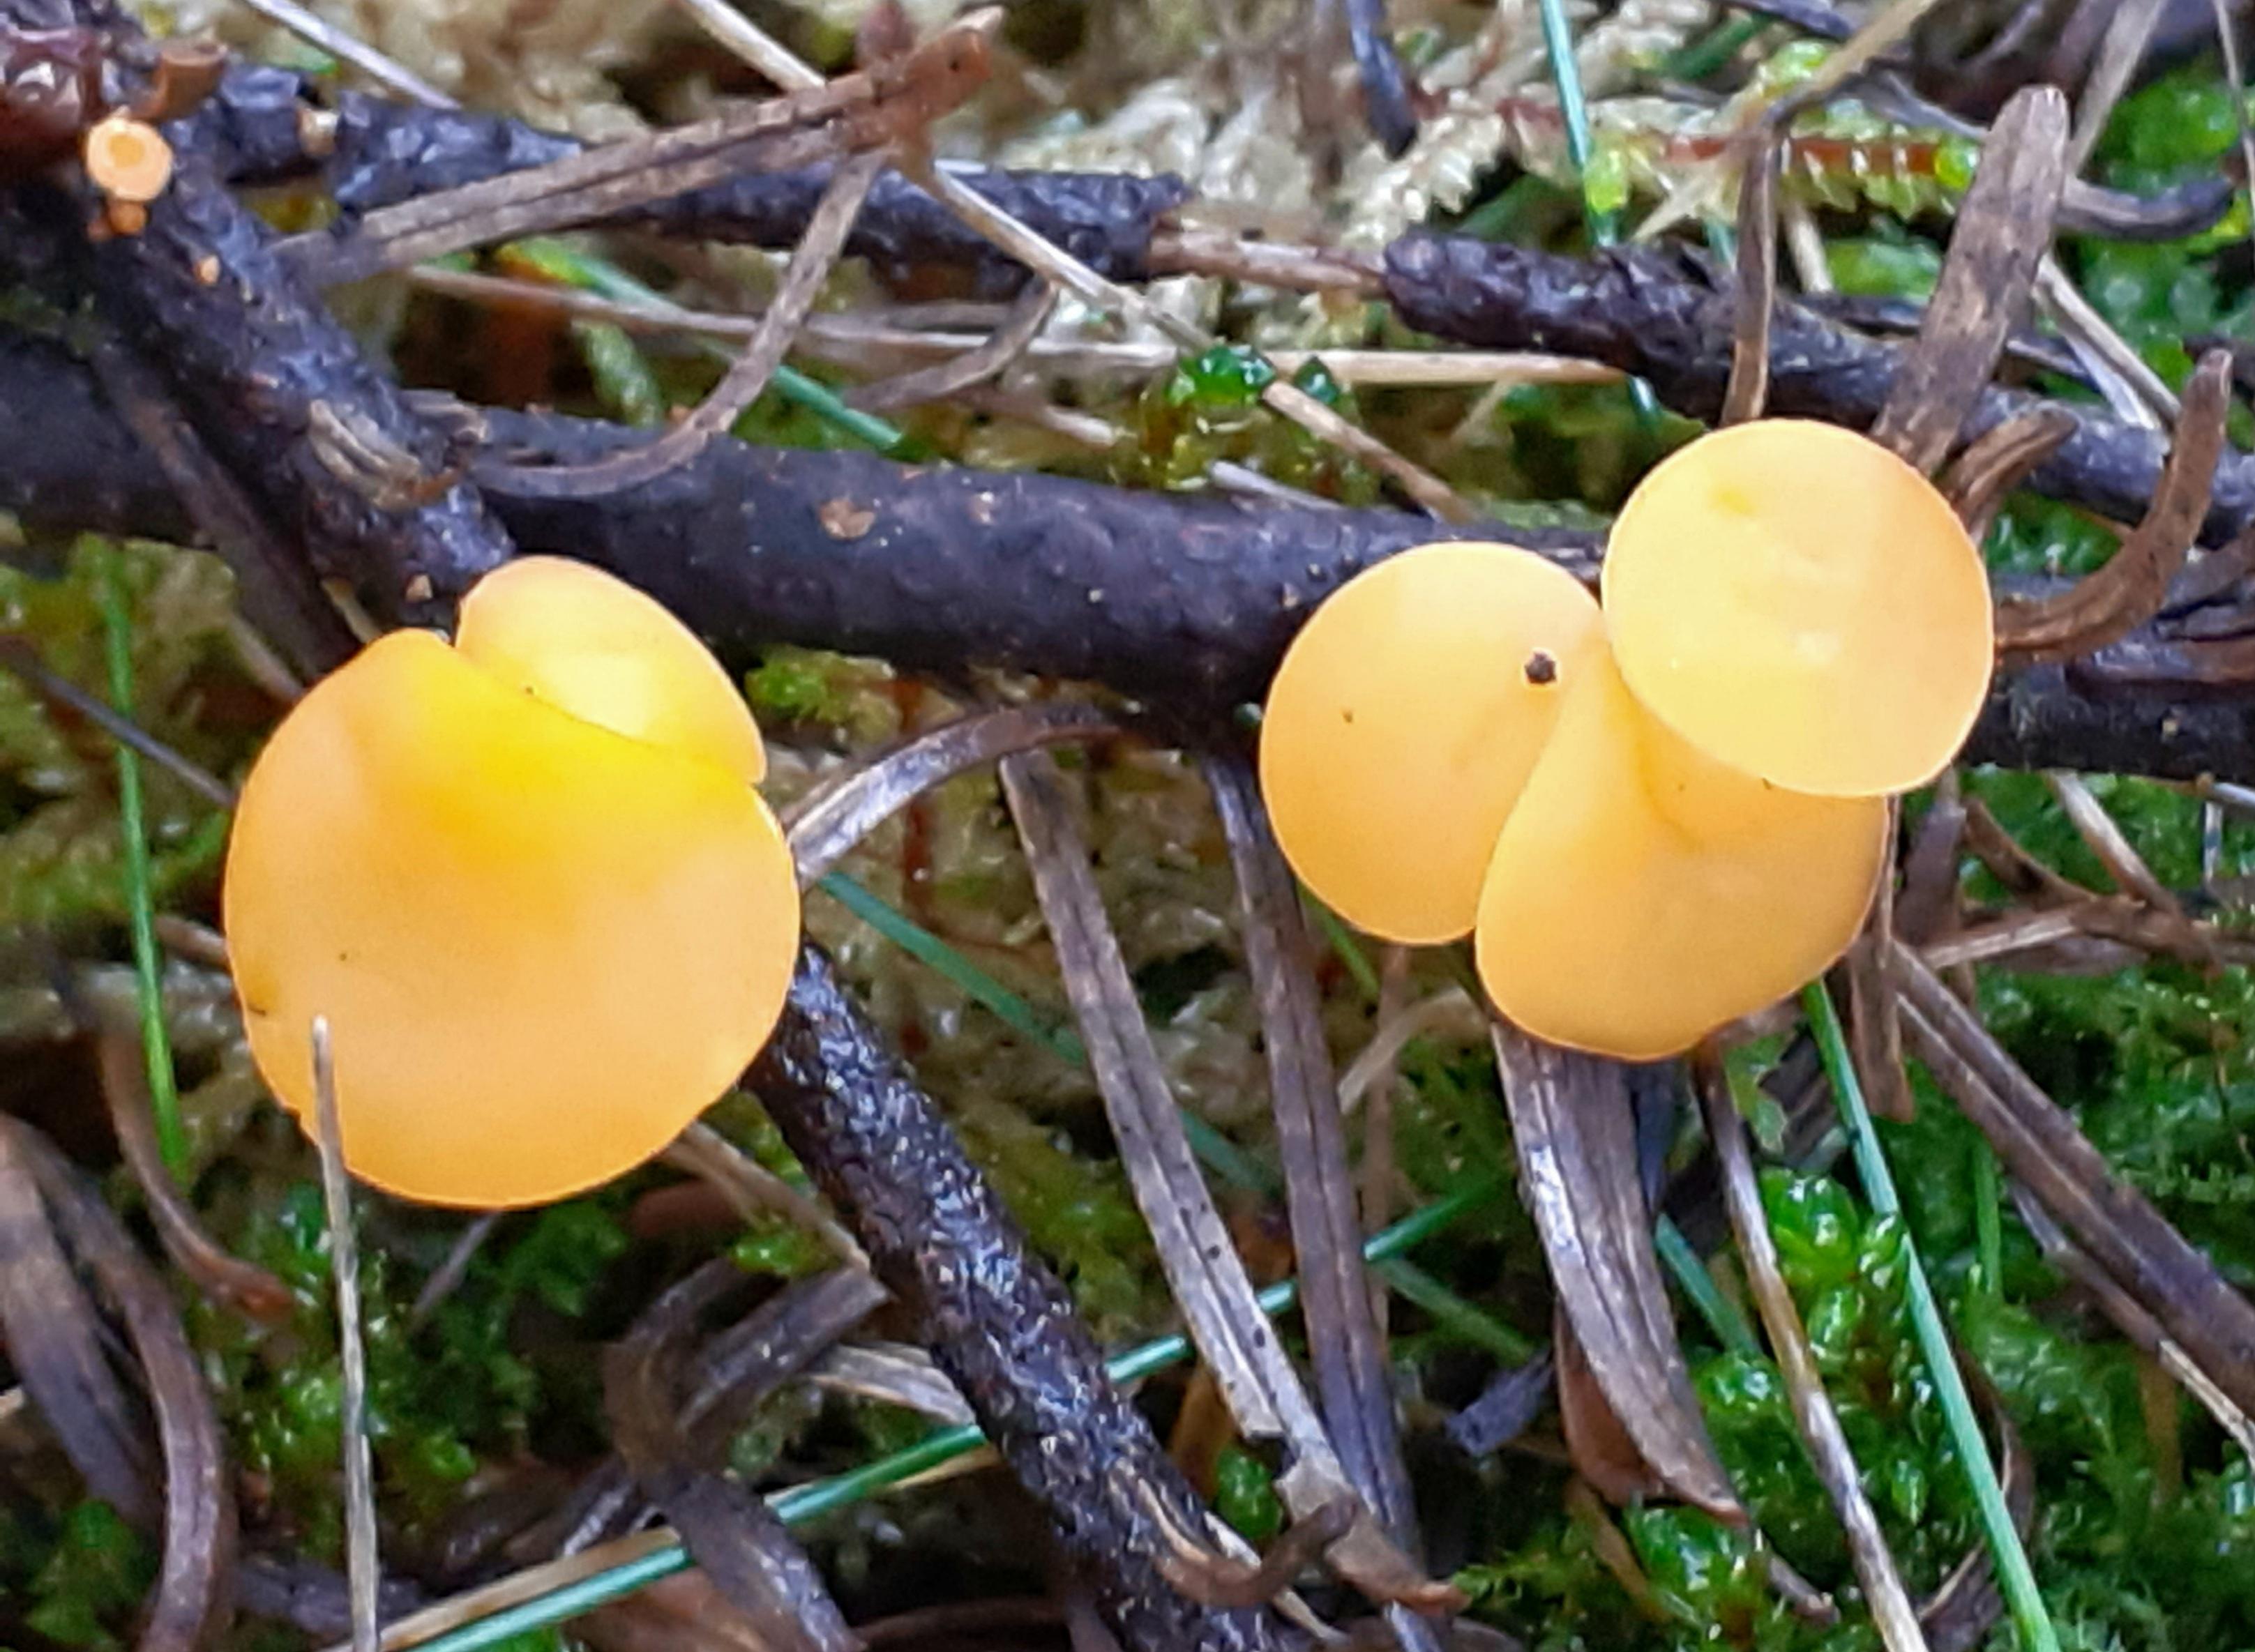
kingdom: Fungi
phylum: Ascomycota
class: Pezizomycetes
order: Pezizales
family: Sarcoscyphaceae
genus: Pithya
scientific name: Pithya vulgaris
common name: stor dukatbæger
